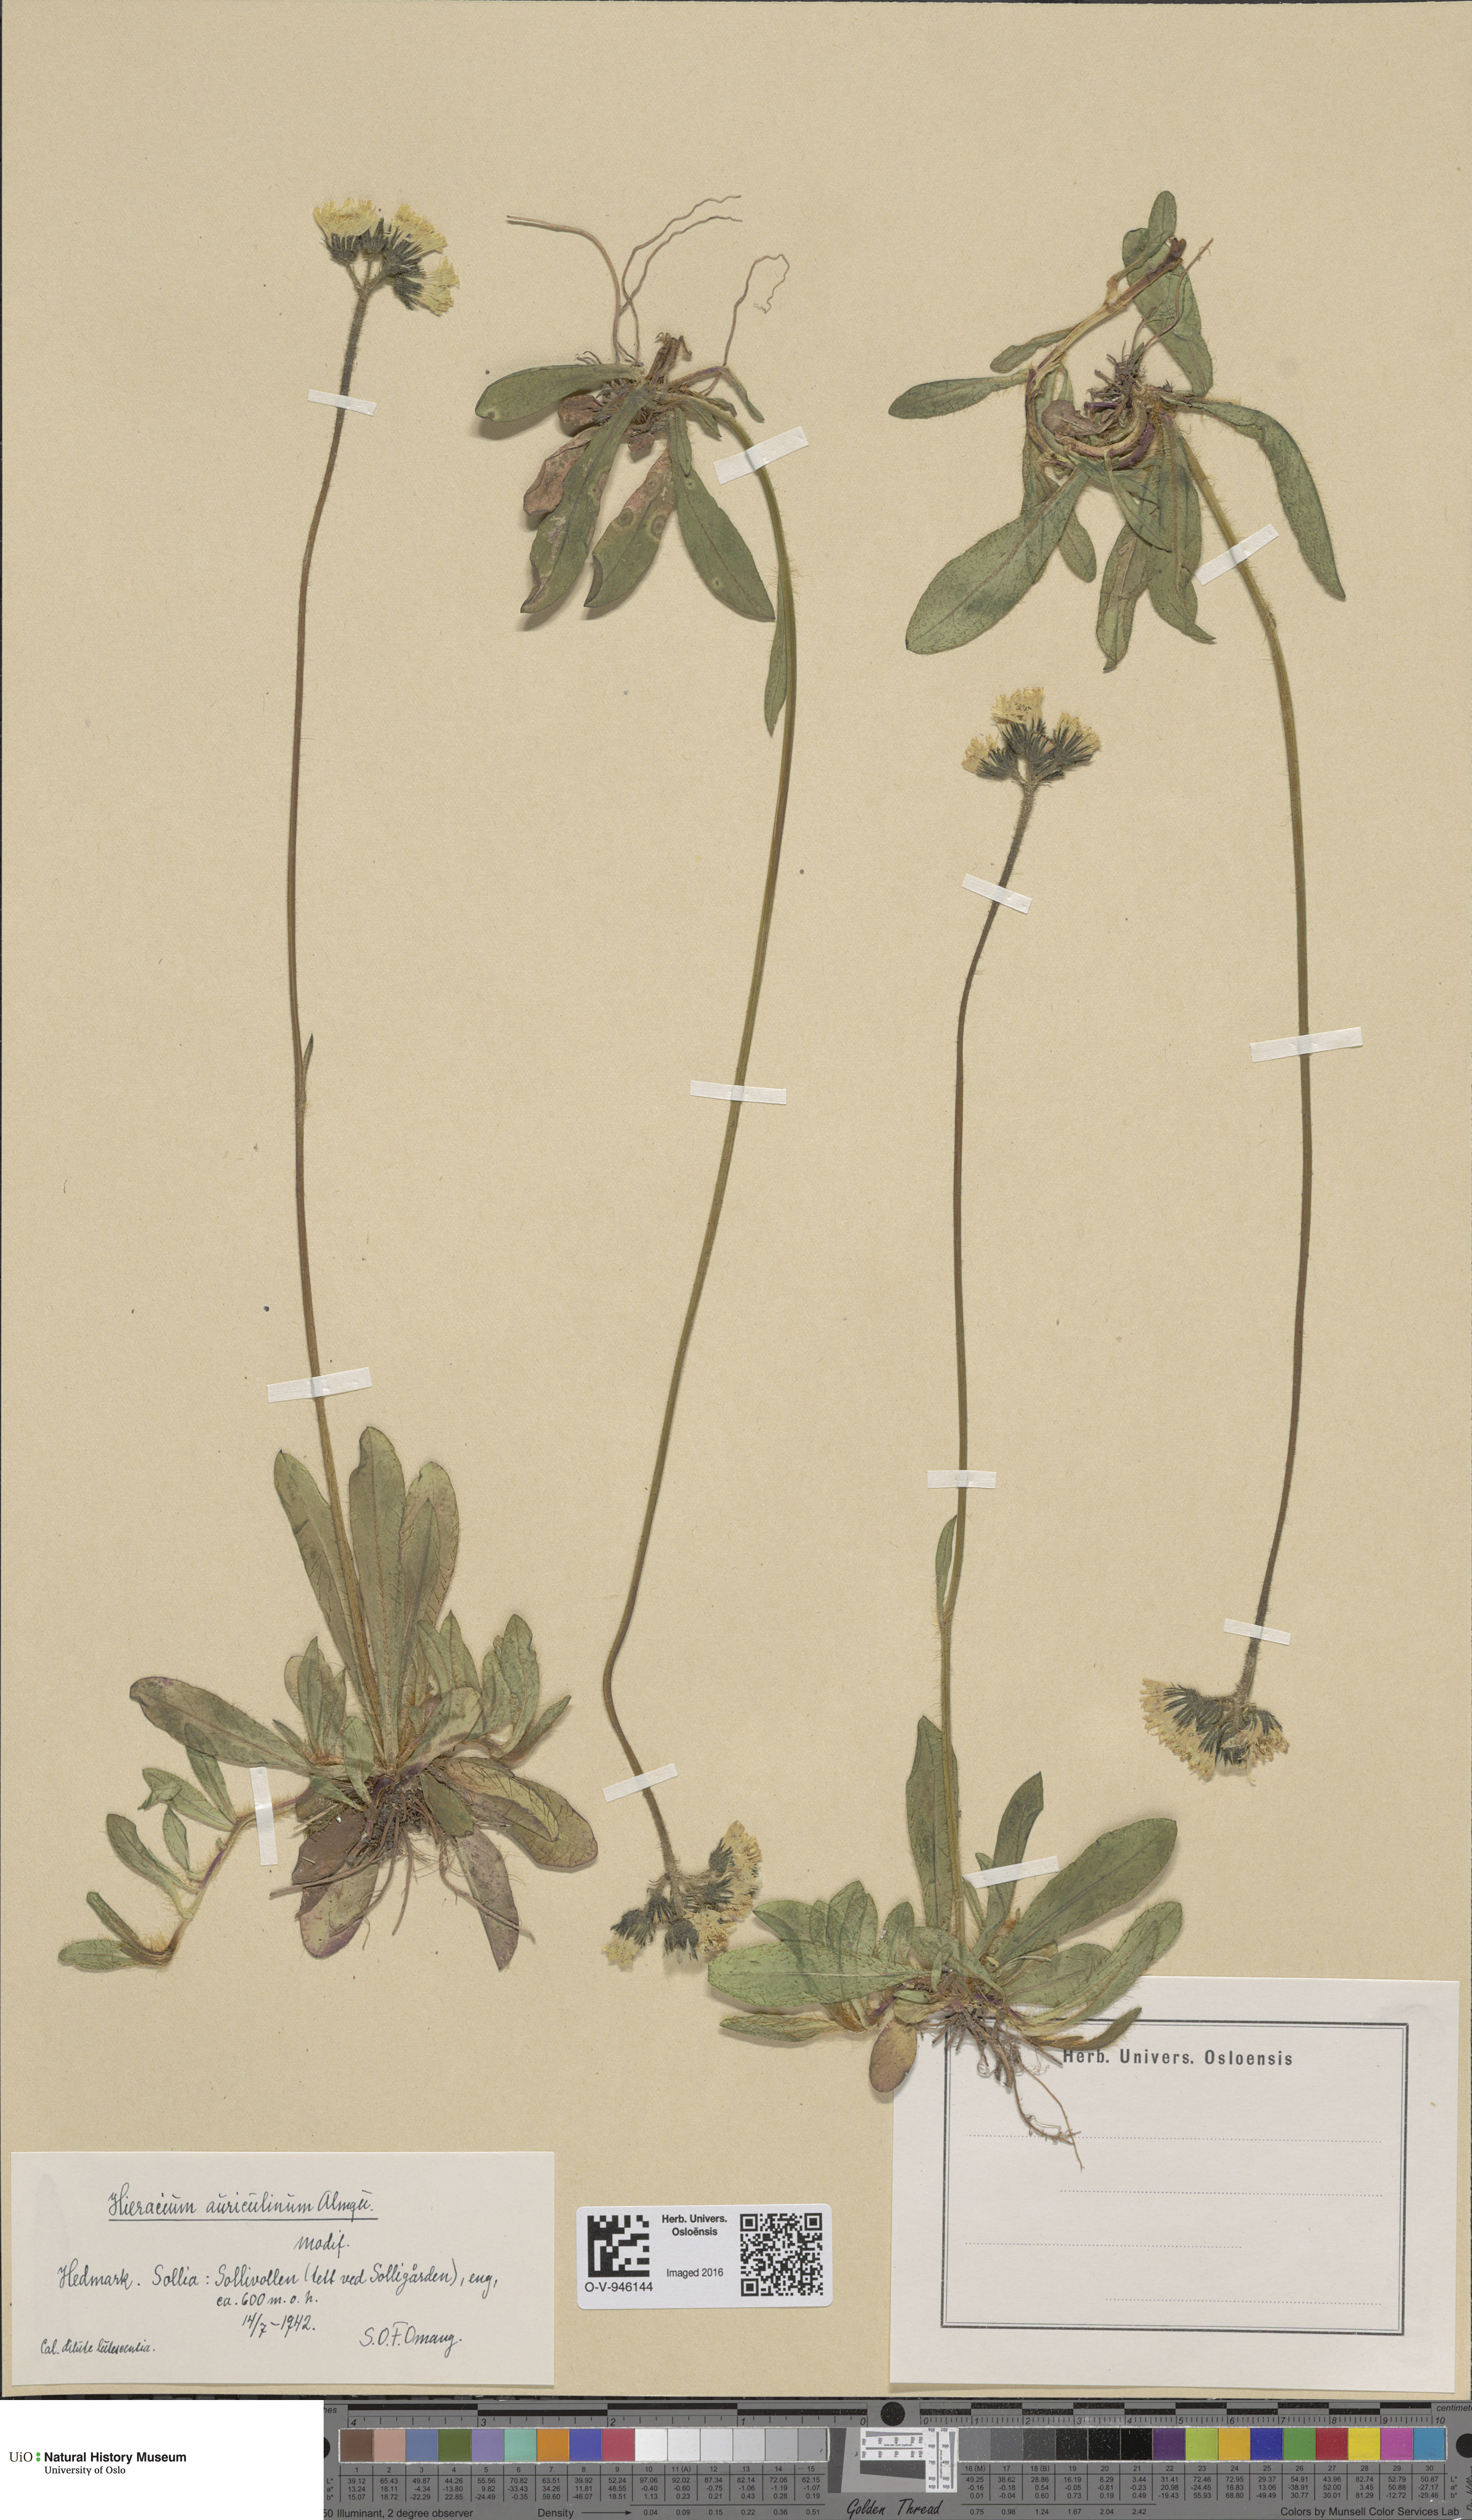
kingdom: Plantae
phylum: Tracheophyta
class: Magnoliopsida
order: Asterales
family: Asteraceae
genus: Pilosella
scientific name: Pilosella dubia
